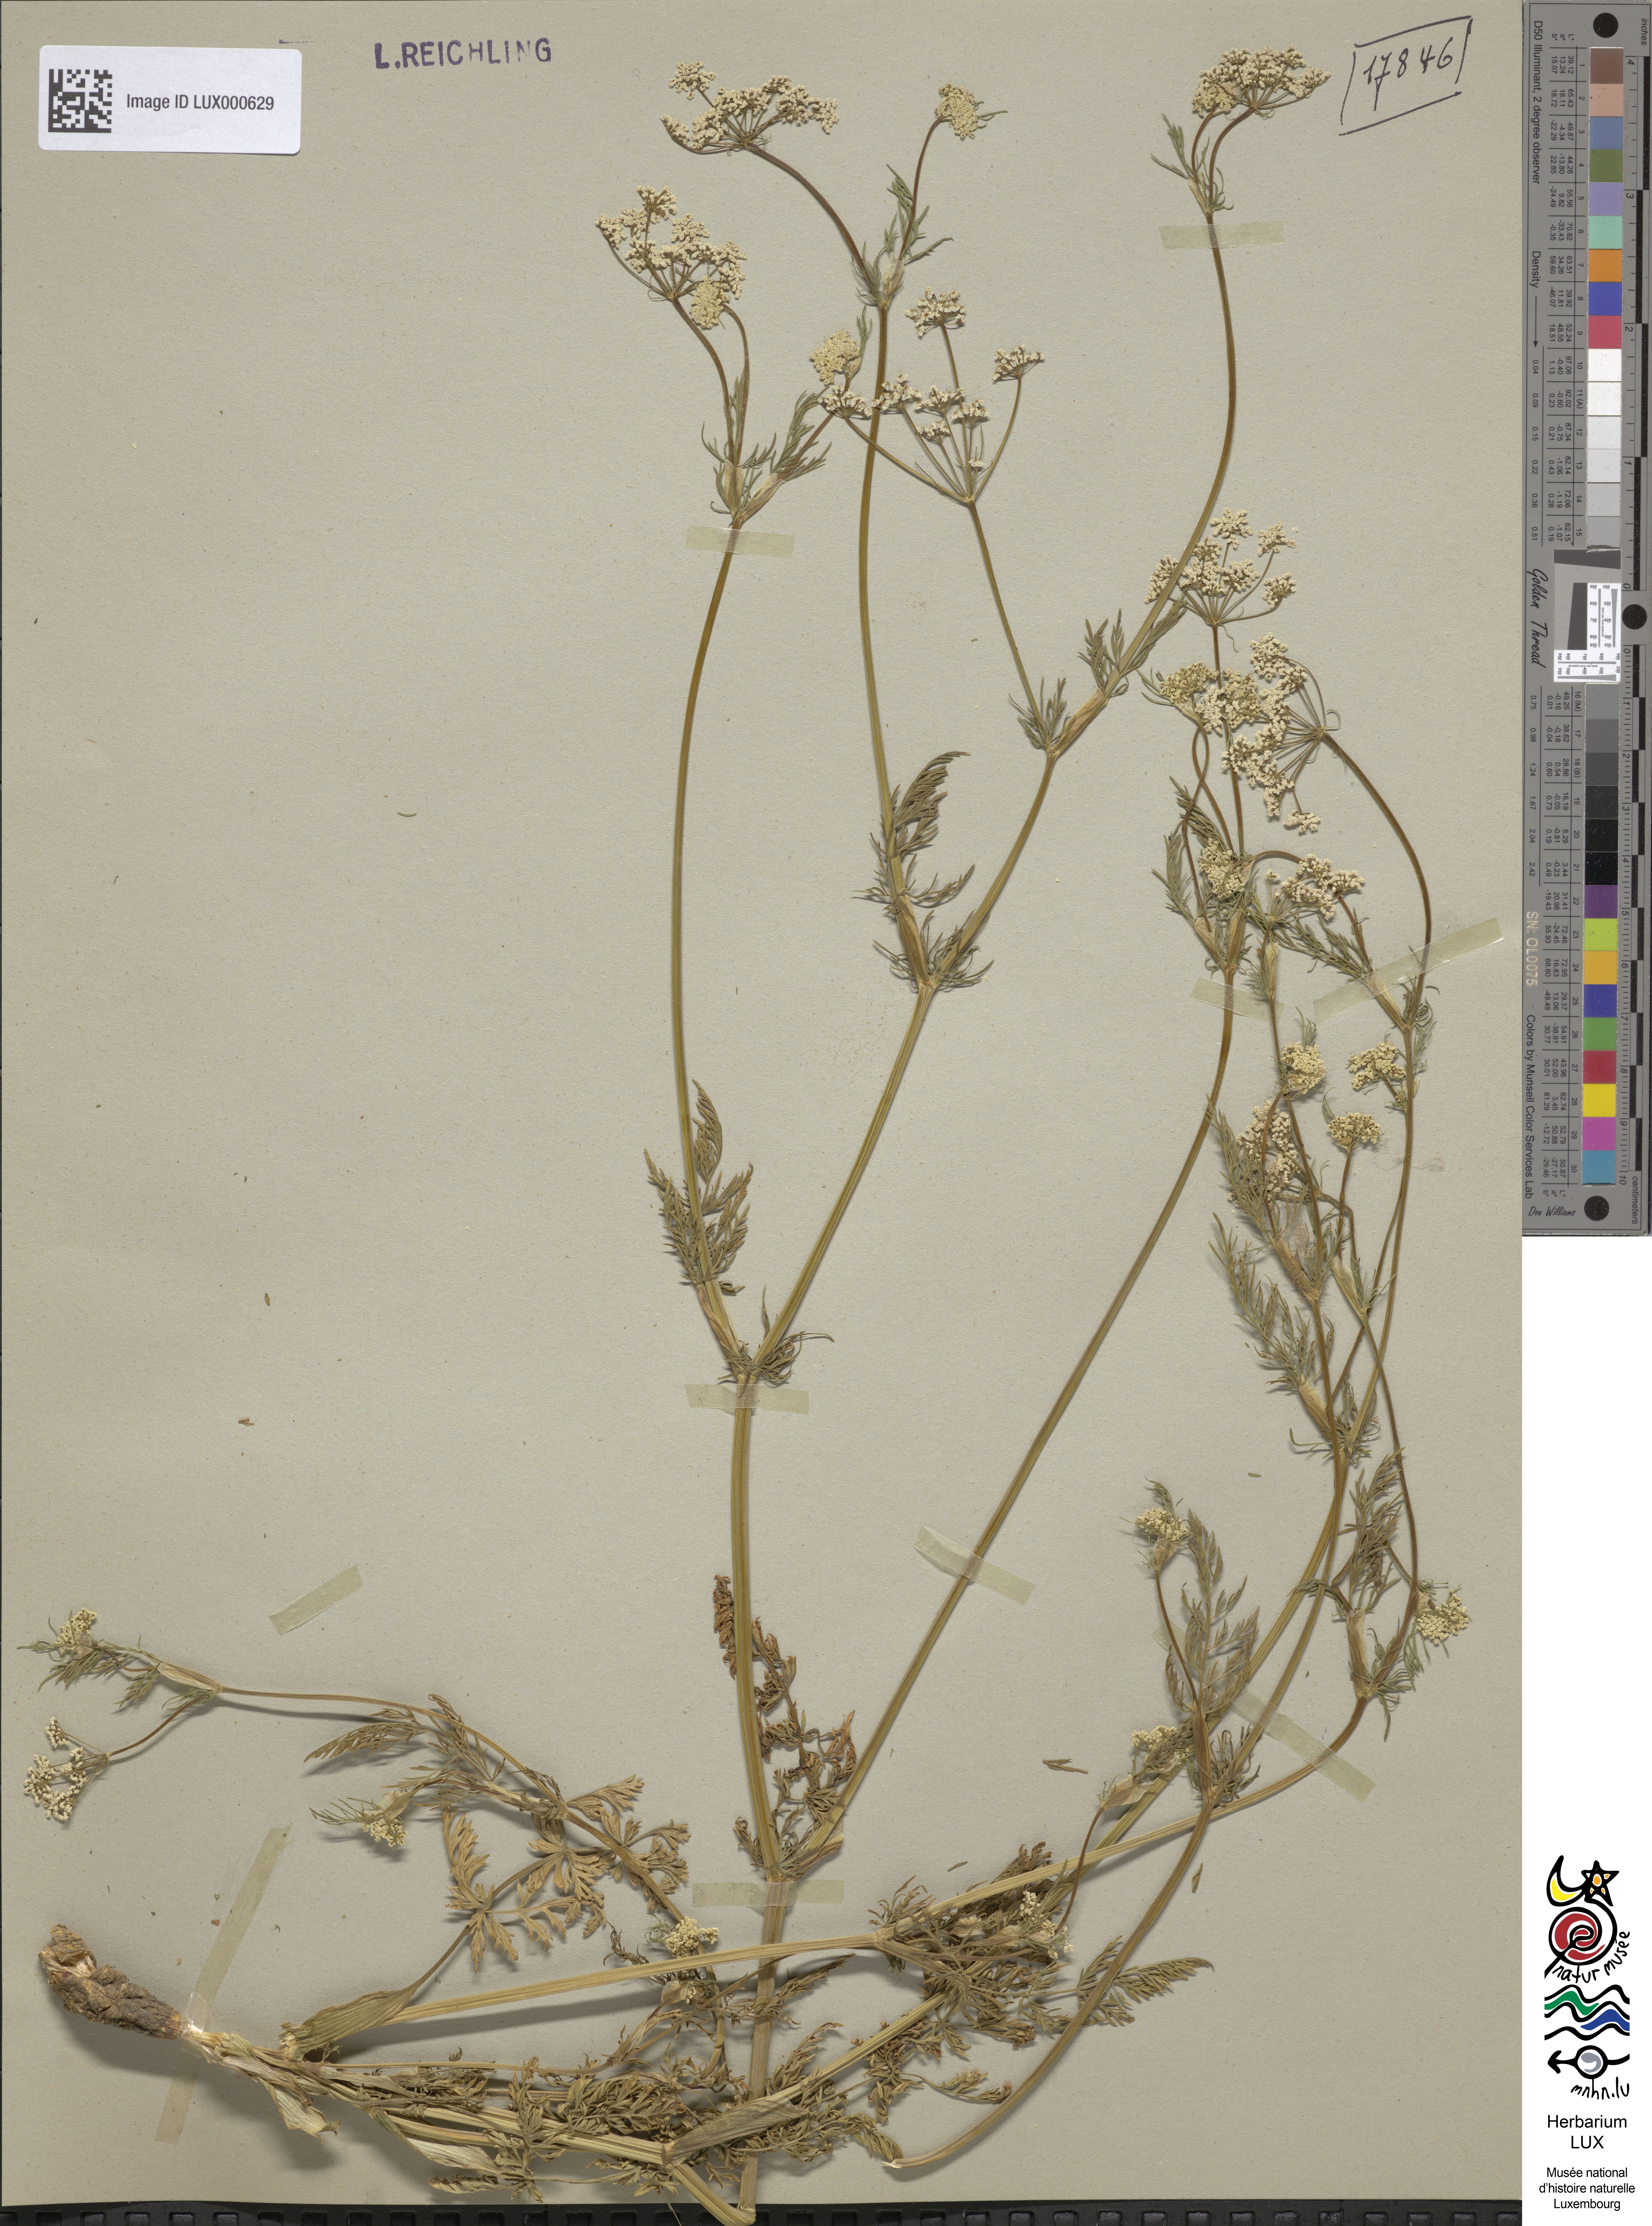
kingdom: Plantae
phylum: Tracheophyta
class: Magnoliopsida
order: Apiales
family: Apiaceae
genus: Carum
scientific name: Carum carvi
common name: Caraway
